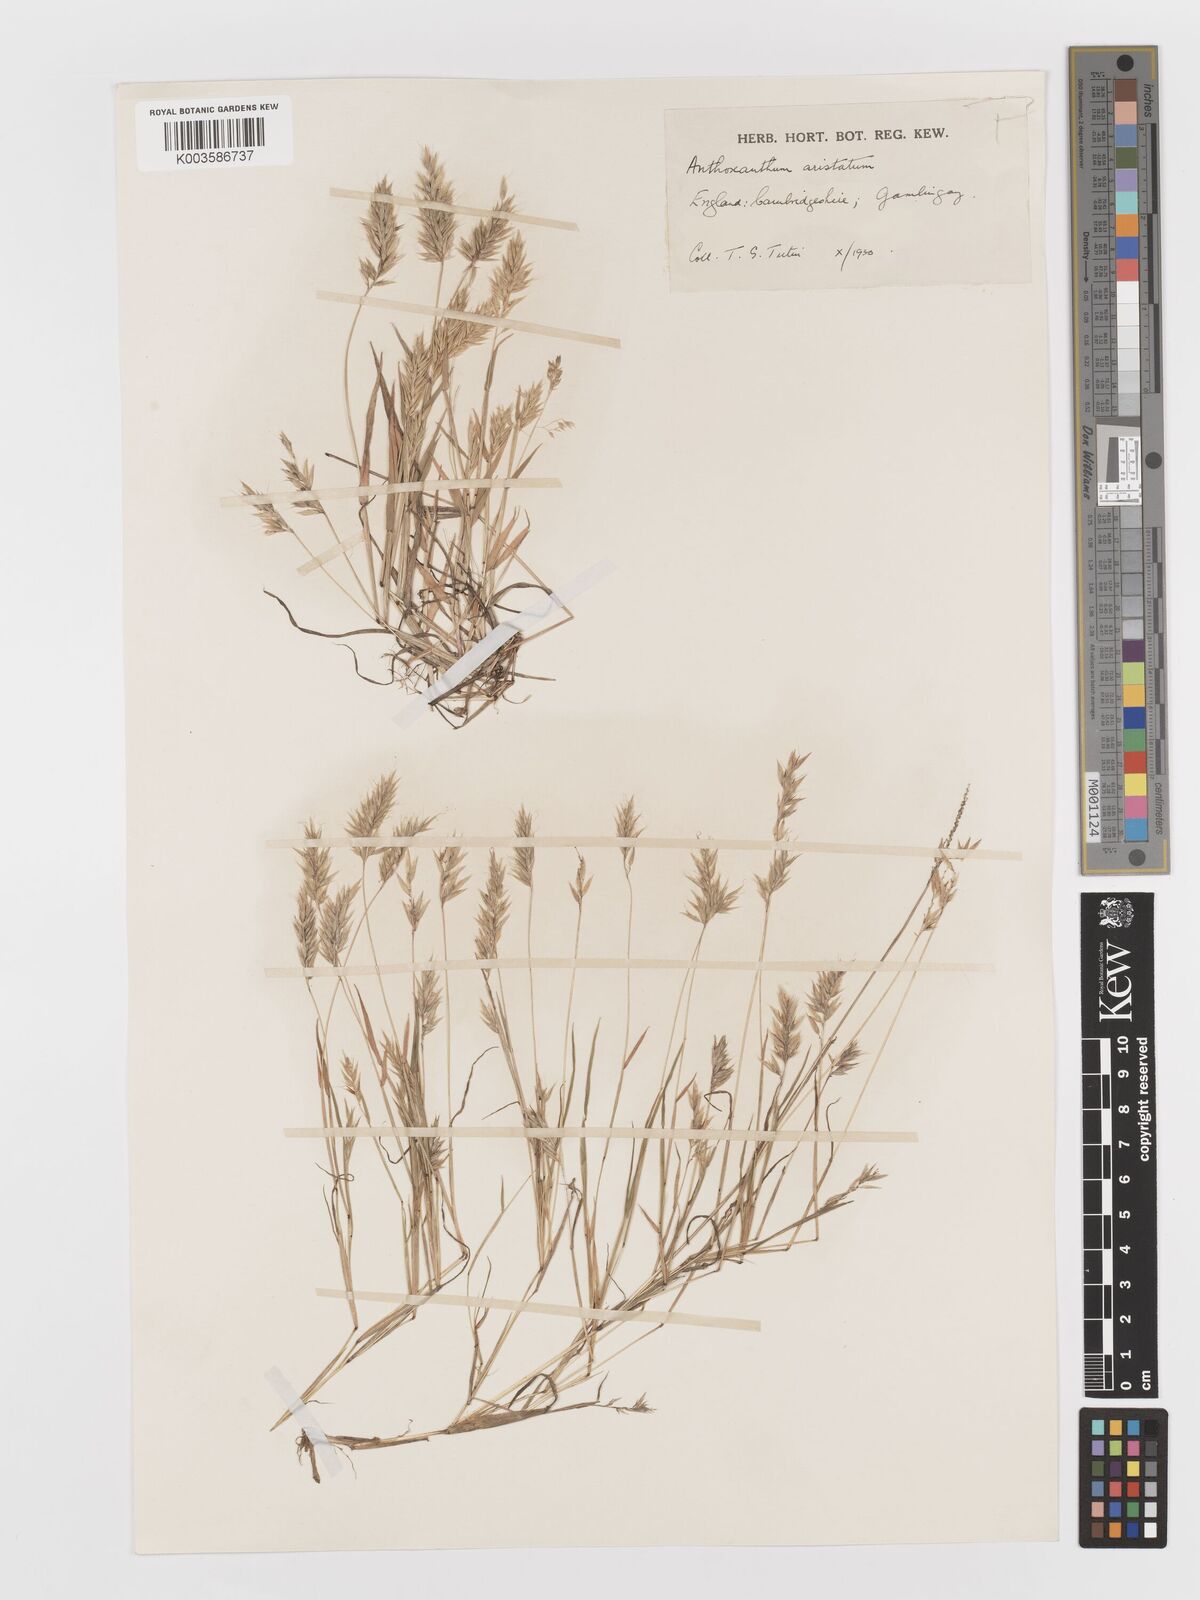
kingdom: Plantae
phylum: Tracheophyta
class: Liliopsida
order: Poales
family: Poaceae
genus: Anthoxanthum
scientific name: Anthoxanthum aristatum
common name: Annual vernal-grass
